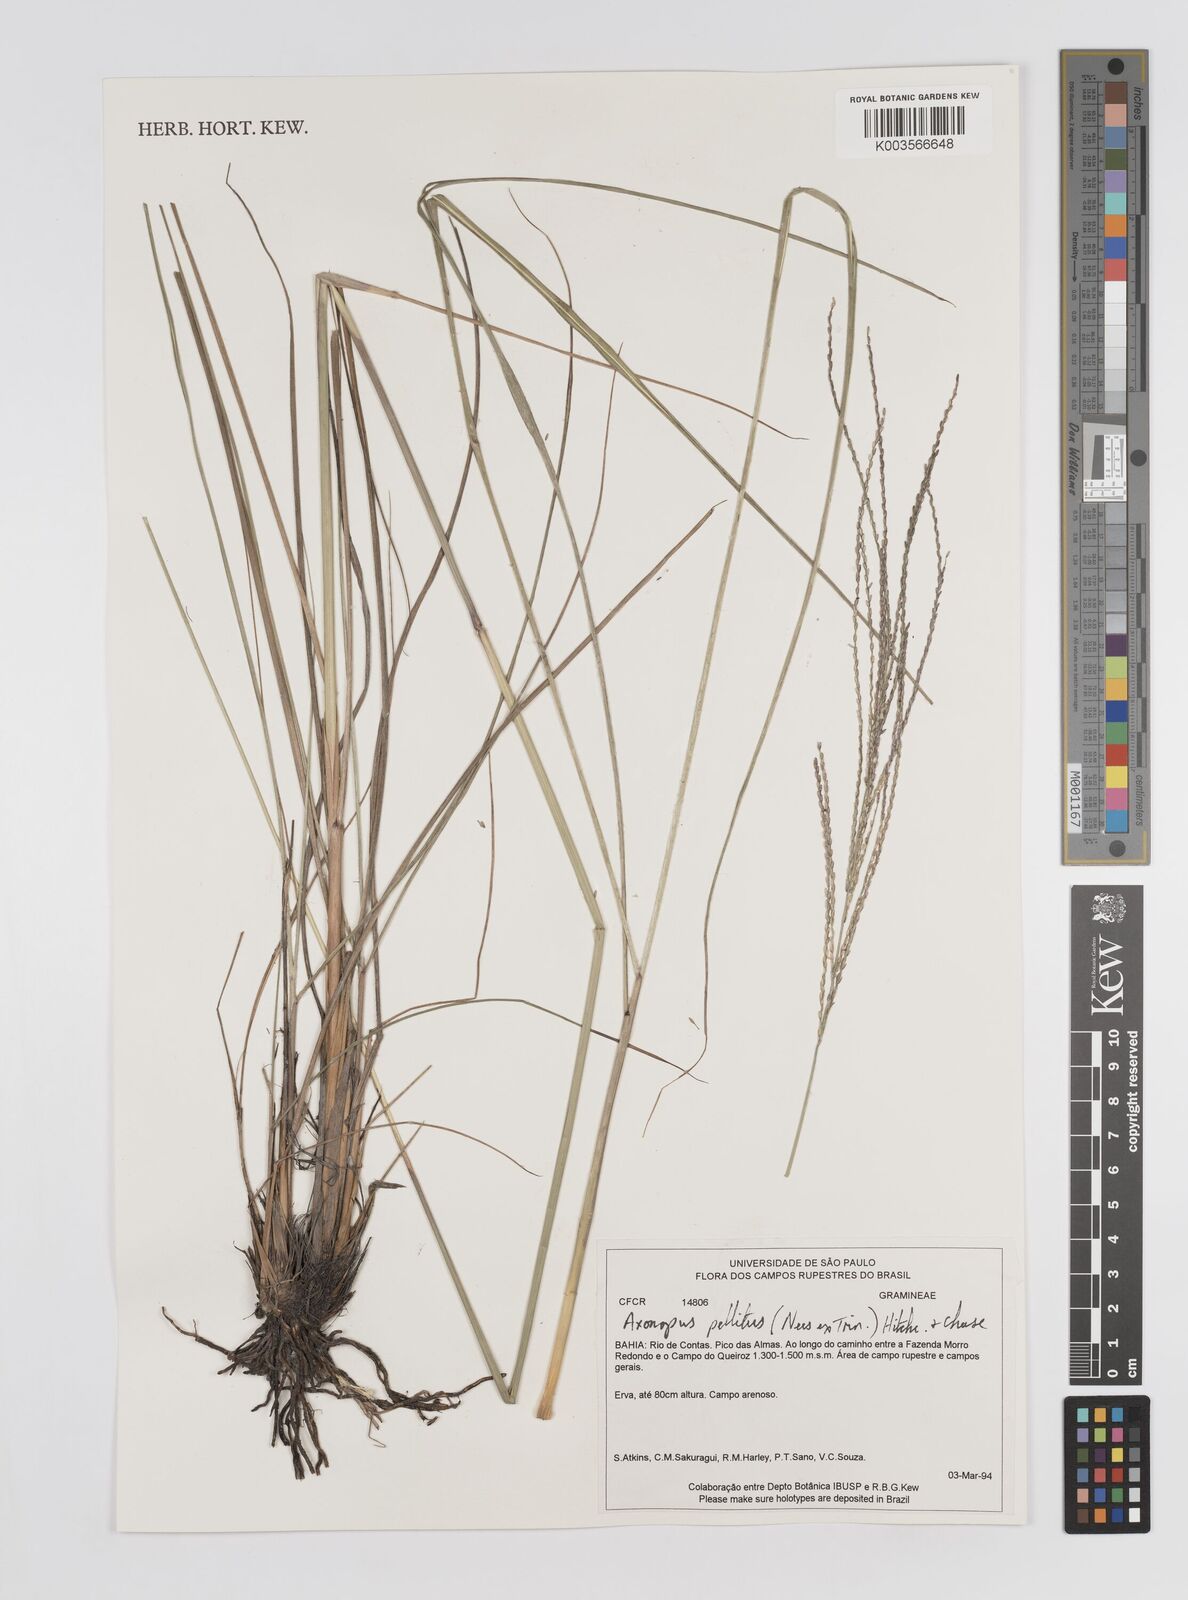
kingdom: Plantae
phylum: Tracheophyta
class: Liliopsida
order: Poales
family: Poaceae
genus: Axonopus
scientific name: Axonopus siccus
